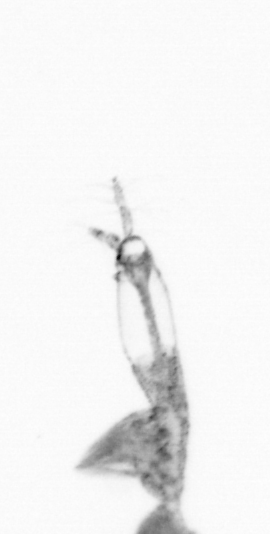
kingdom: Animalia
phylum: Arthropoda
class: Copepoda
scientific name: Copepoda
